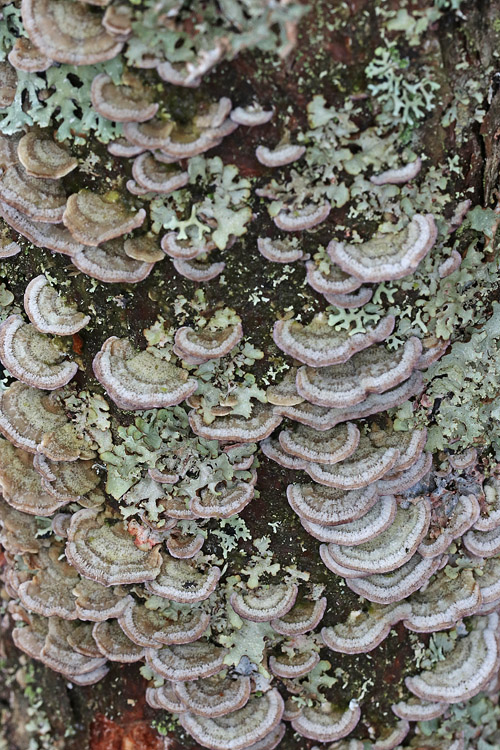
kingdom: Fungi
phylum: Basidiomycota
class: Agaricomycetes
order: Hymenochaetales
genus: Trichaptum
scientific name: Trichaptum abietinum
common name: almindelig violporesvamp
